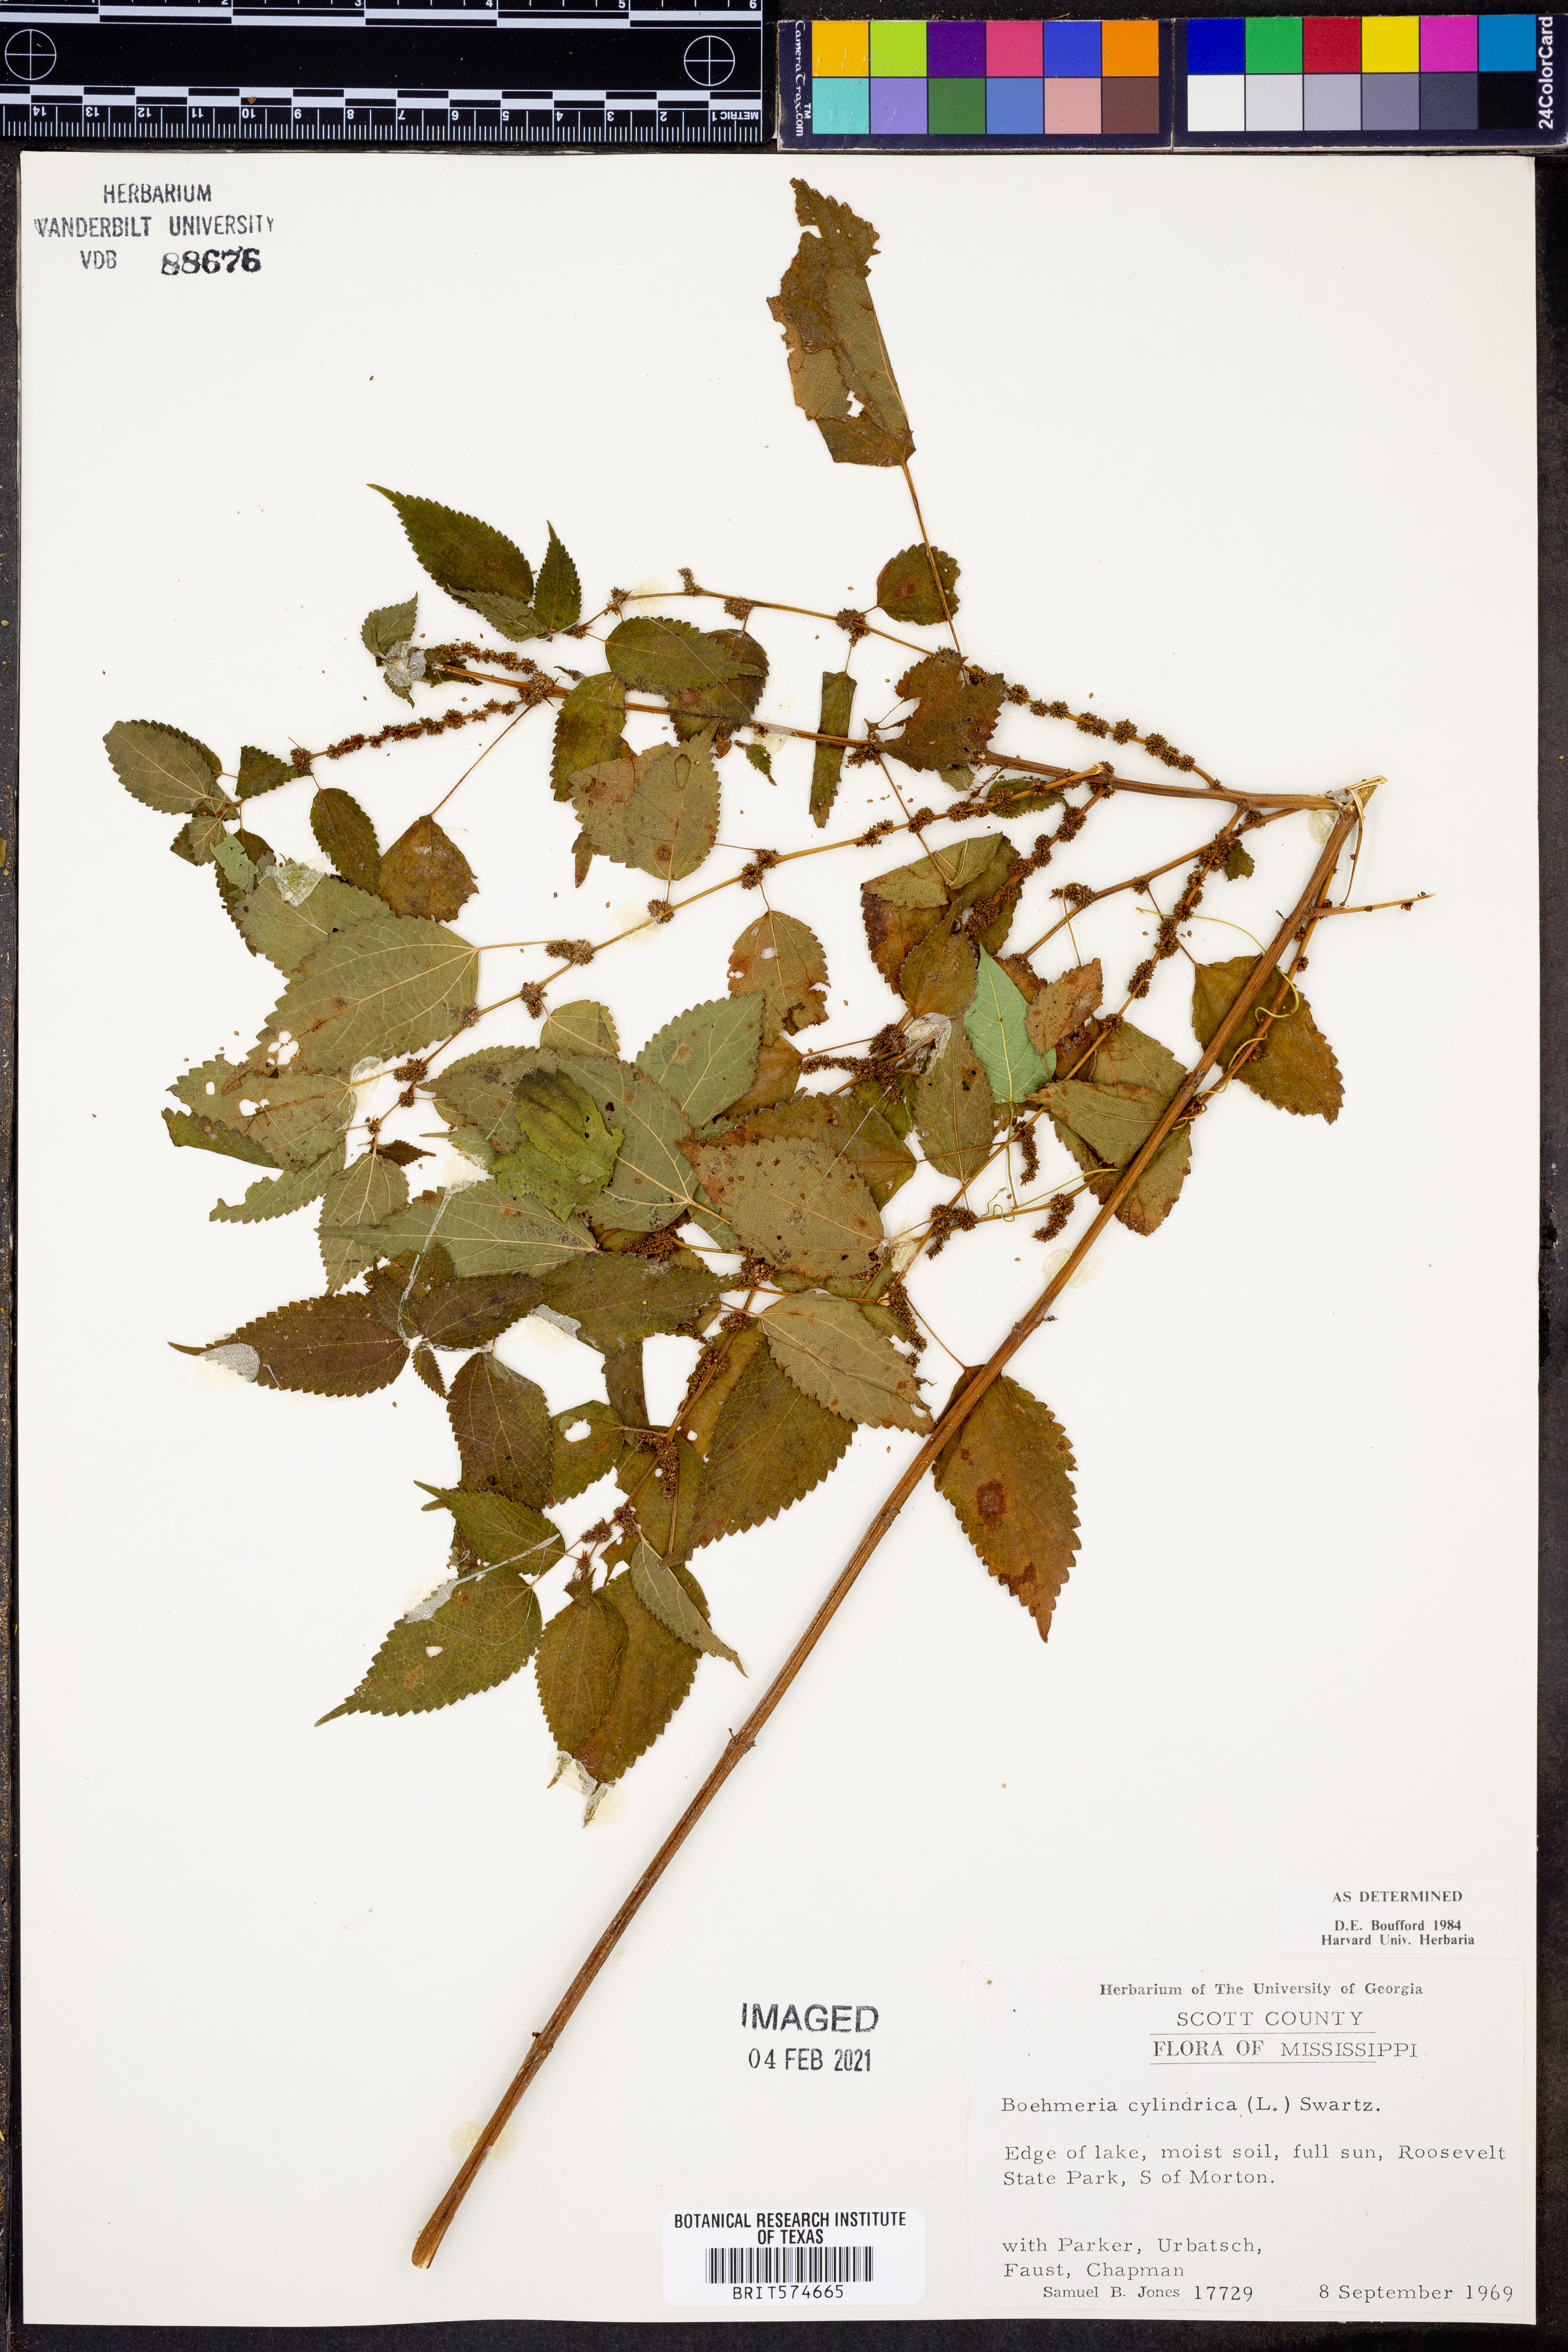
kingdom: Plantae
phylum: Tracheophyta
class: Magnoliopsida
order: Rosales
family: Urticaceae
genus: Boehmeria
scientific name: Boehmeria cylindrica
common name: Bog-hemp
